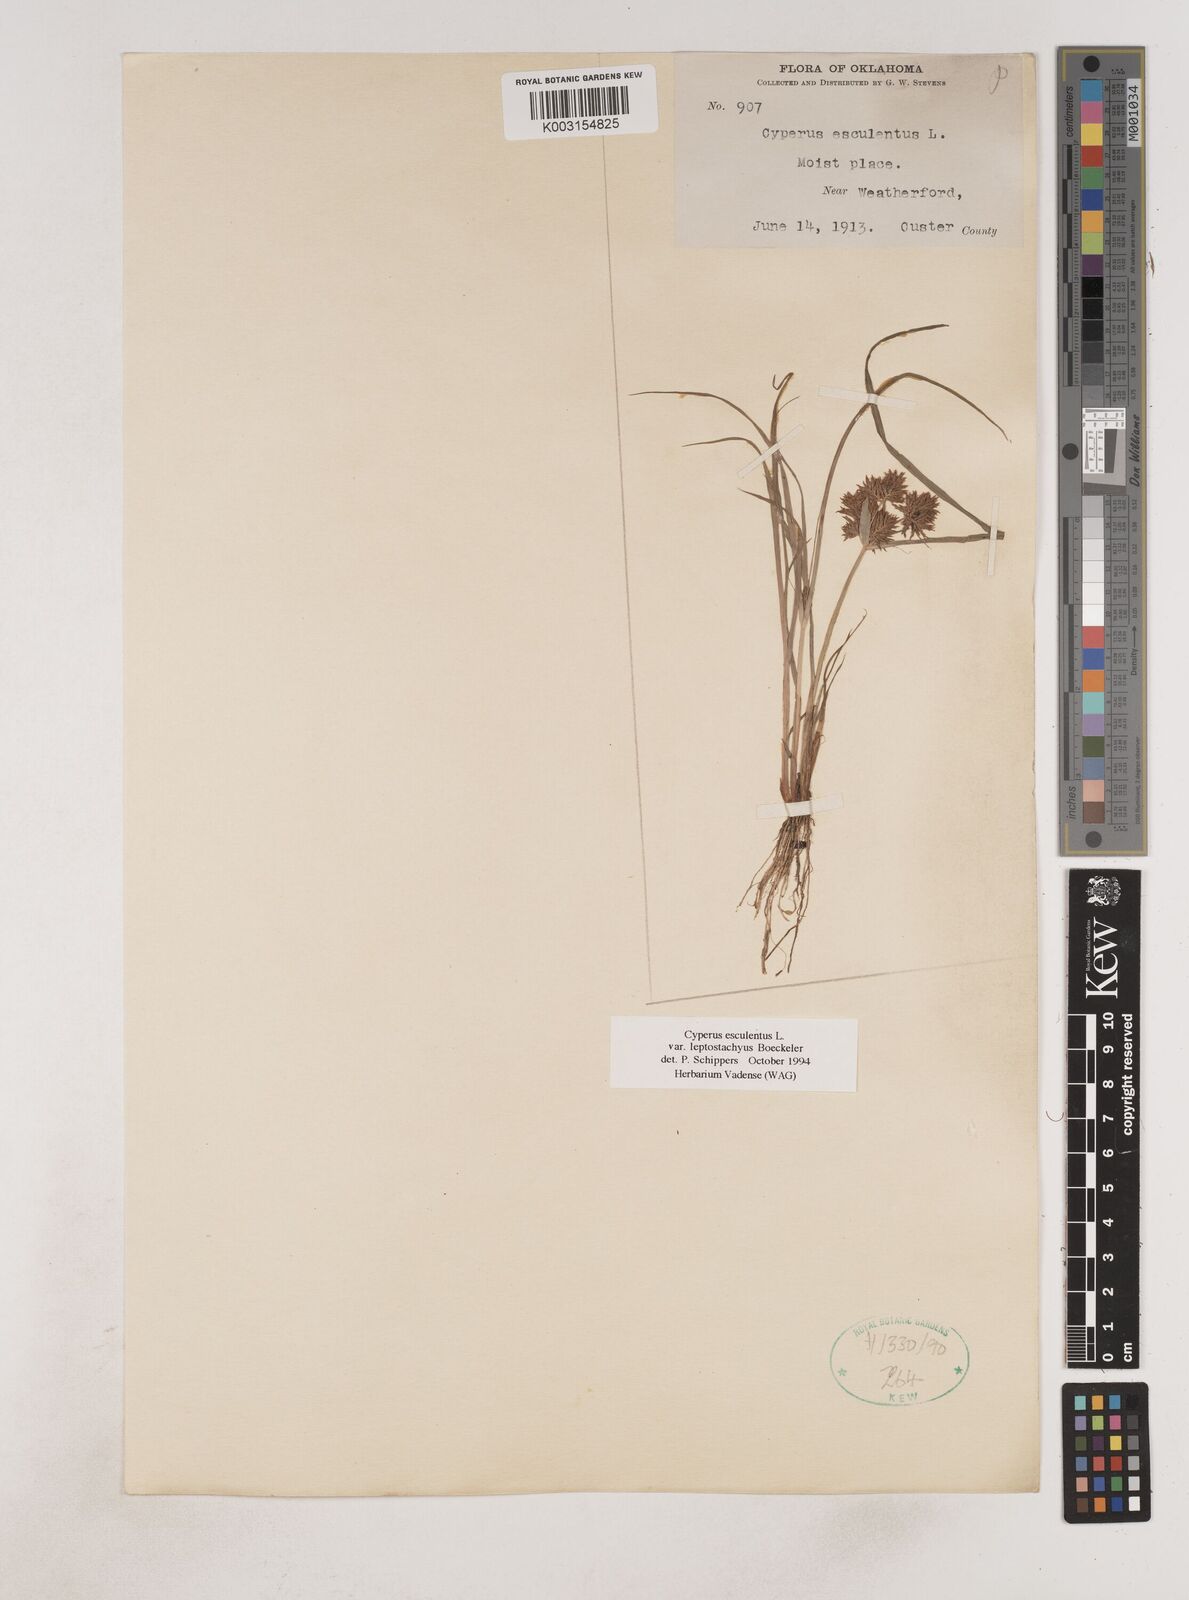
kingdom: Plantae
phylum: Tracheophyta
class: Liliopsida
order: Poales
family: Cyperaceae
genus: Cyperus
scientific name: Cyperus esculentus
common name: Yellow nutsedge
